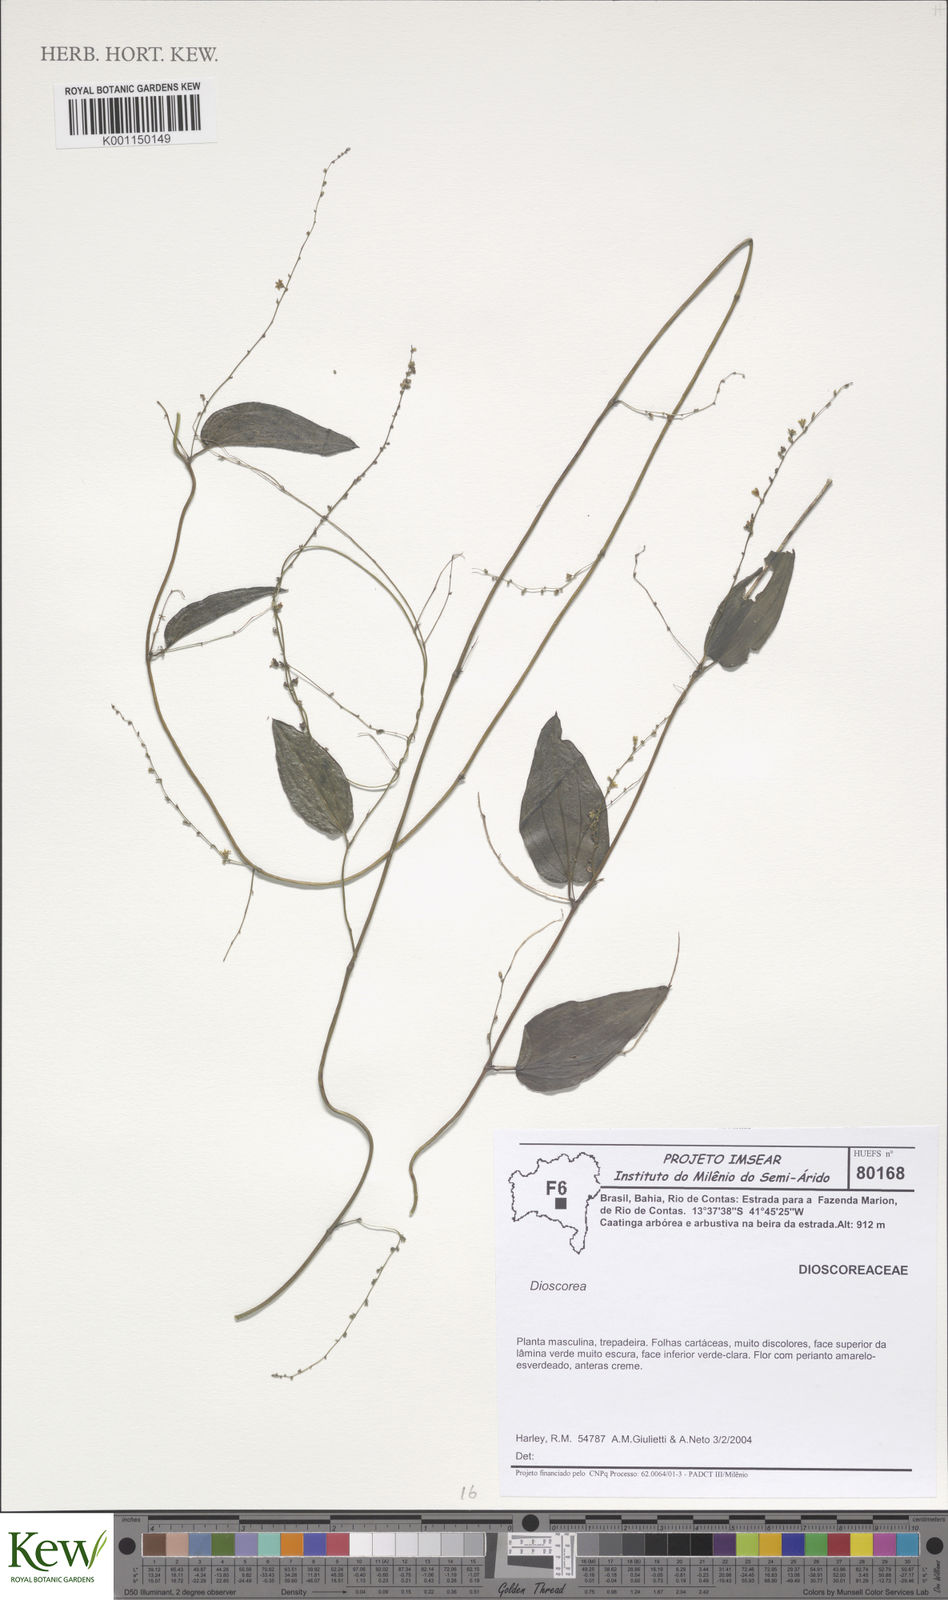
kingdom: Plantae
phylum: Tracheophyta
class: Liliopsida
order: Dioscoreales
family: Dioscoreaceae
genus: Dioscorea
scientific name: Dioscorea
